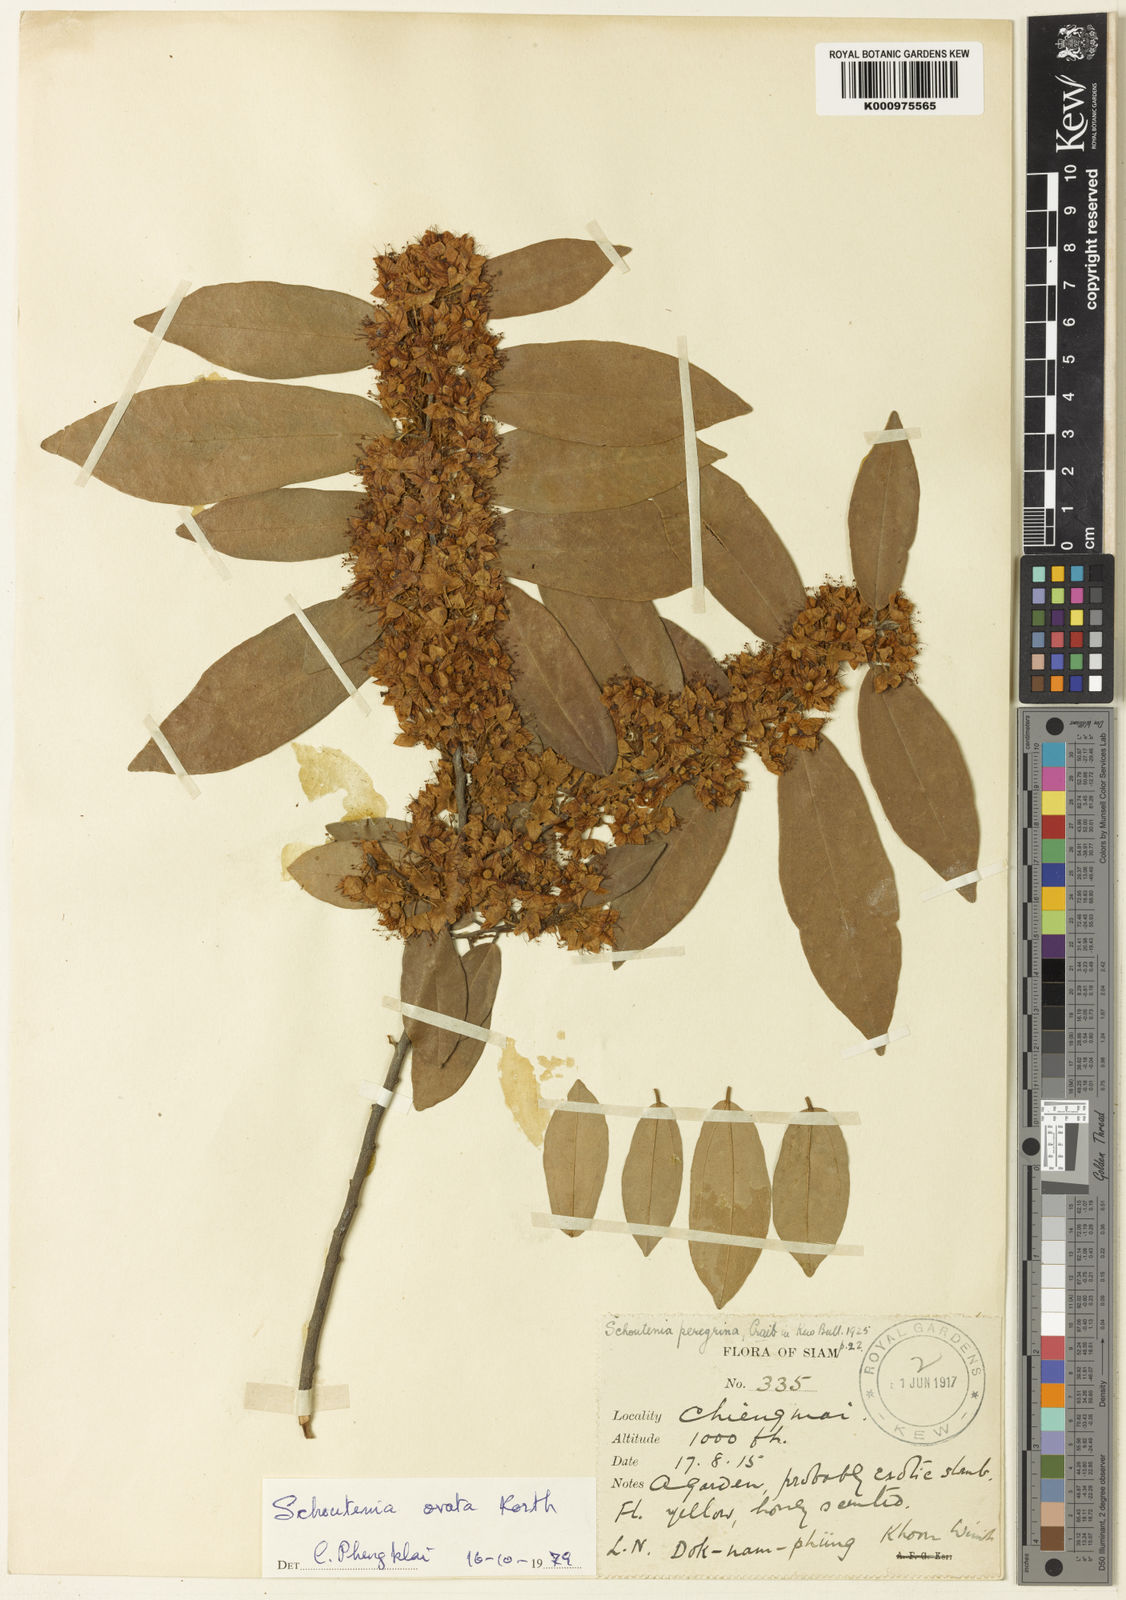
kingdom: Plantae
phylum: Tracheophyta
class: Magnoliopsida
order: Malvales
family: Malvaceae
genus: Schoutenia
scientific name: Schoutenia glomerata
